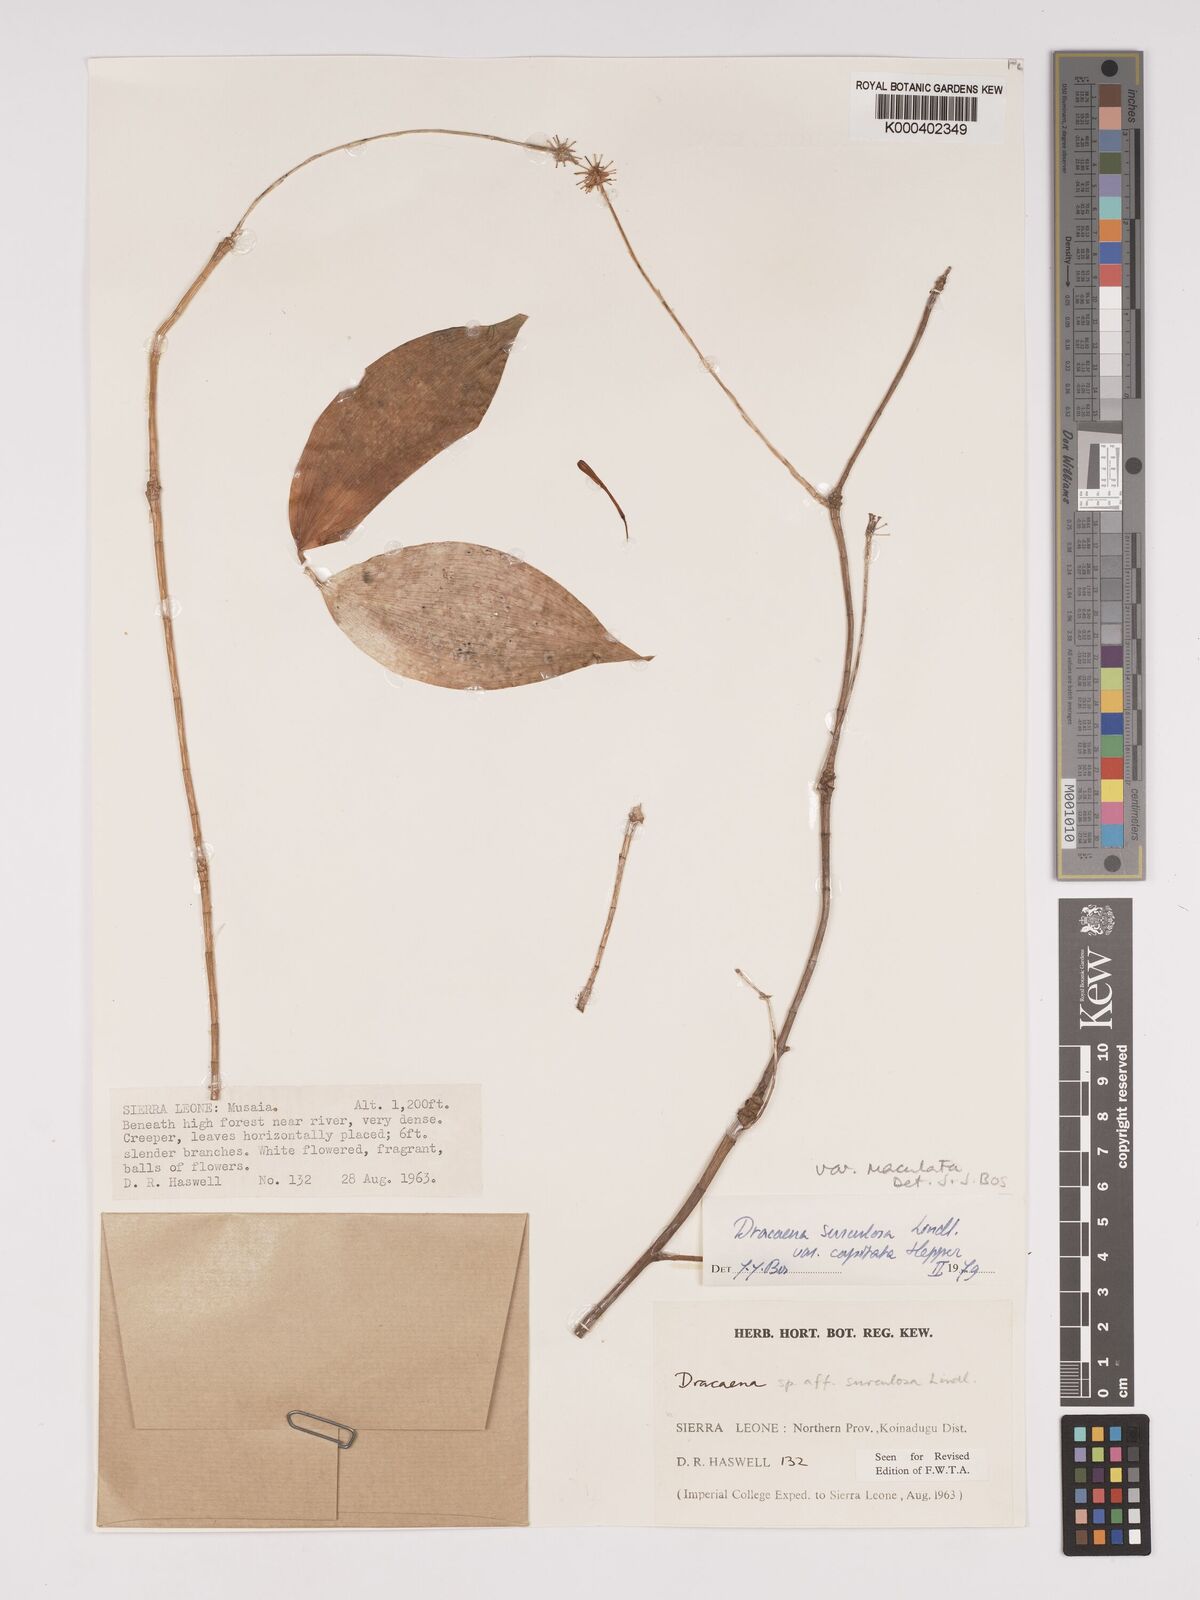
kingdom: Plantae
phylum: Tracheophyta
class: Liliopsida
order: Asparagales
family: Asparagaceae
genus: Dracaena
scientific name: Dracaena surculosa
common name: Spotted dracaena
